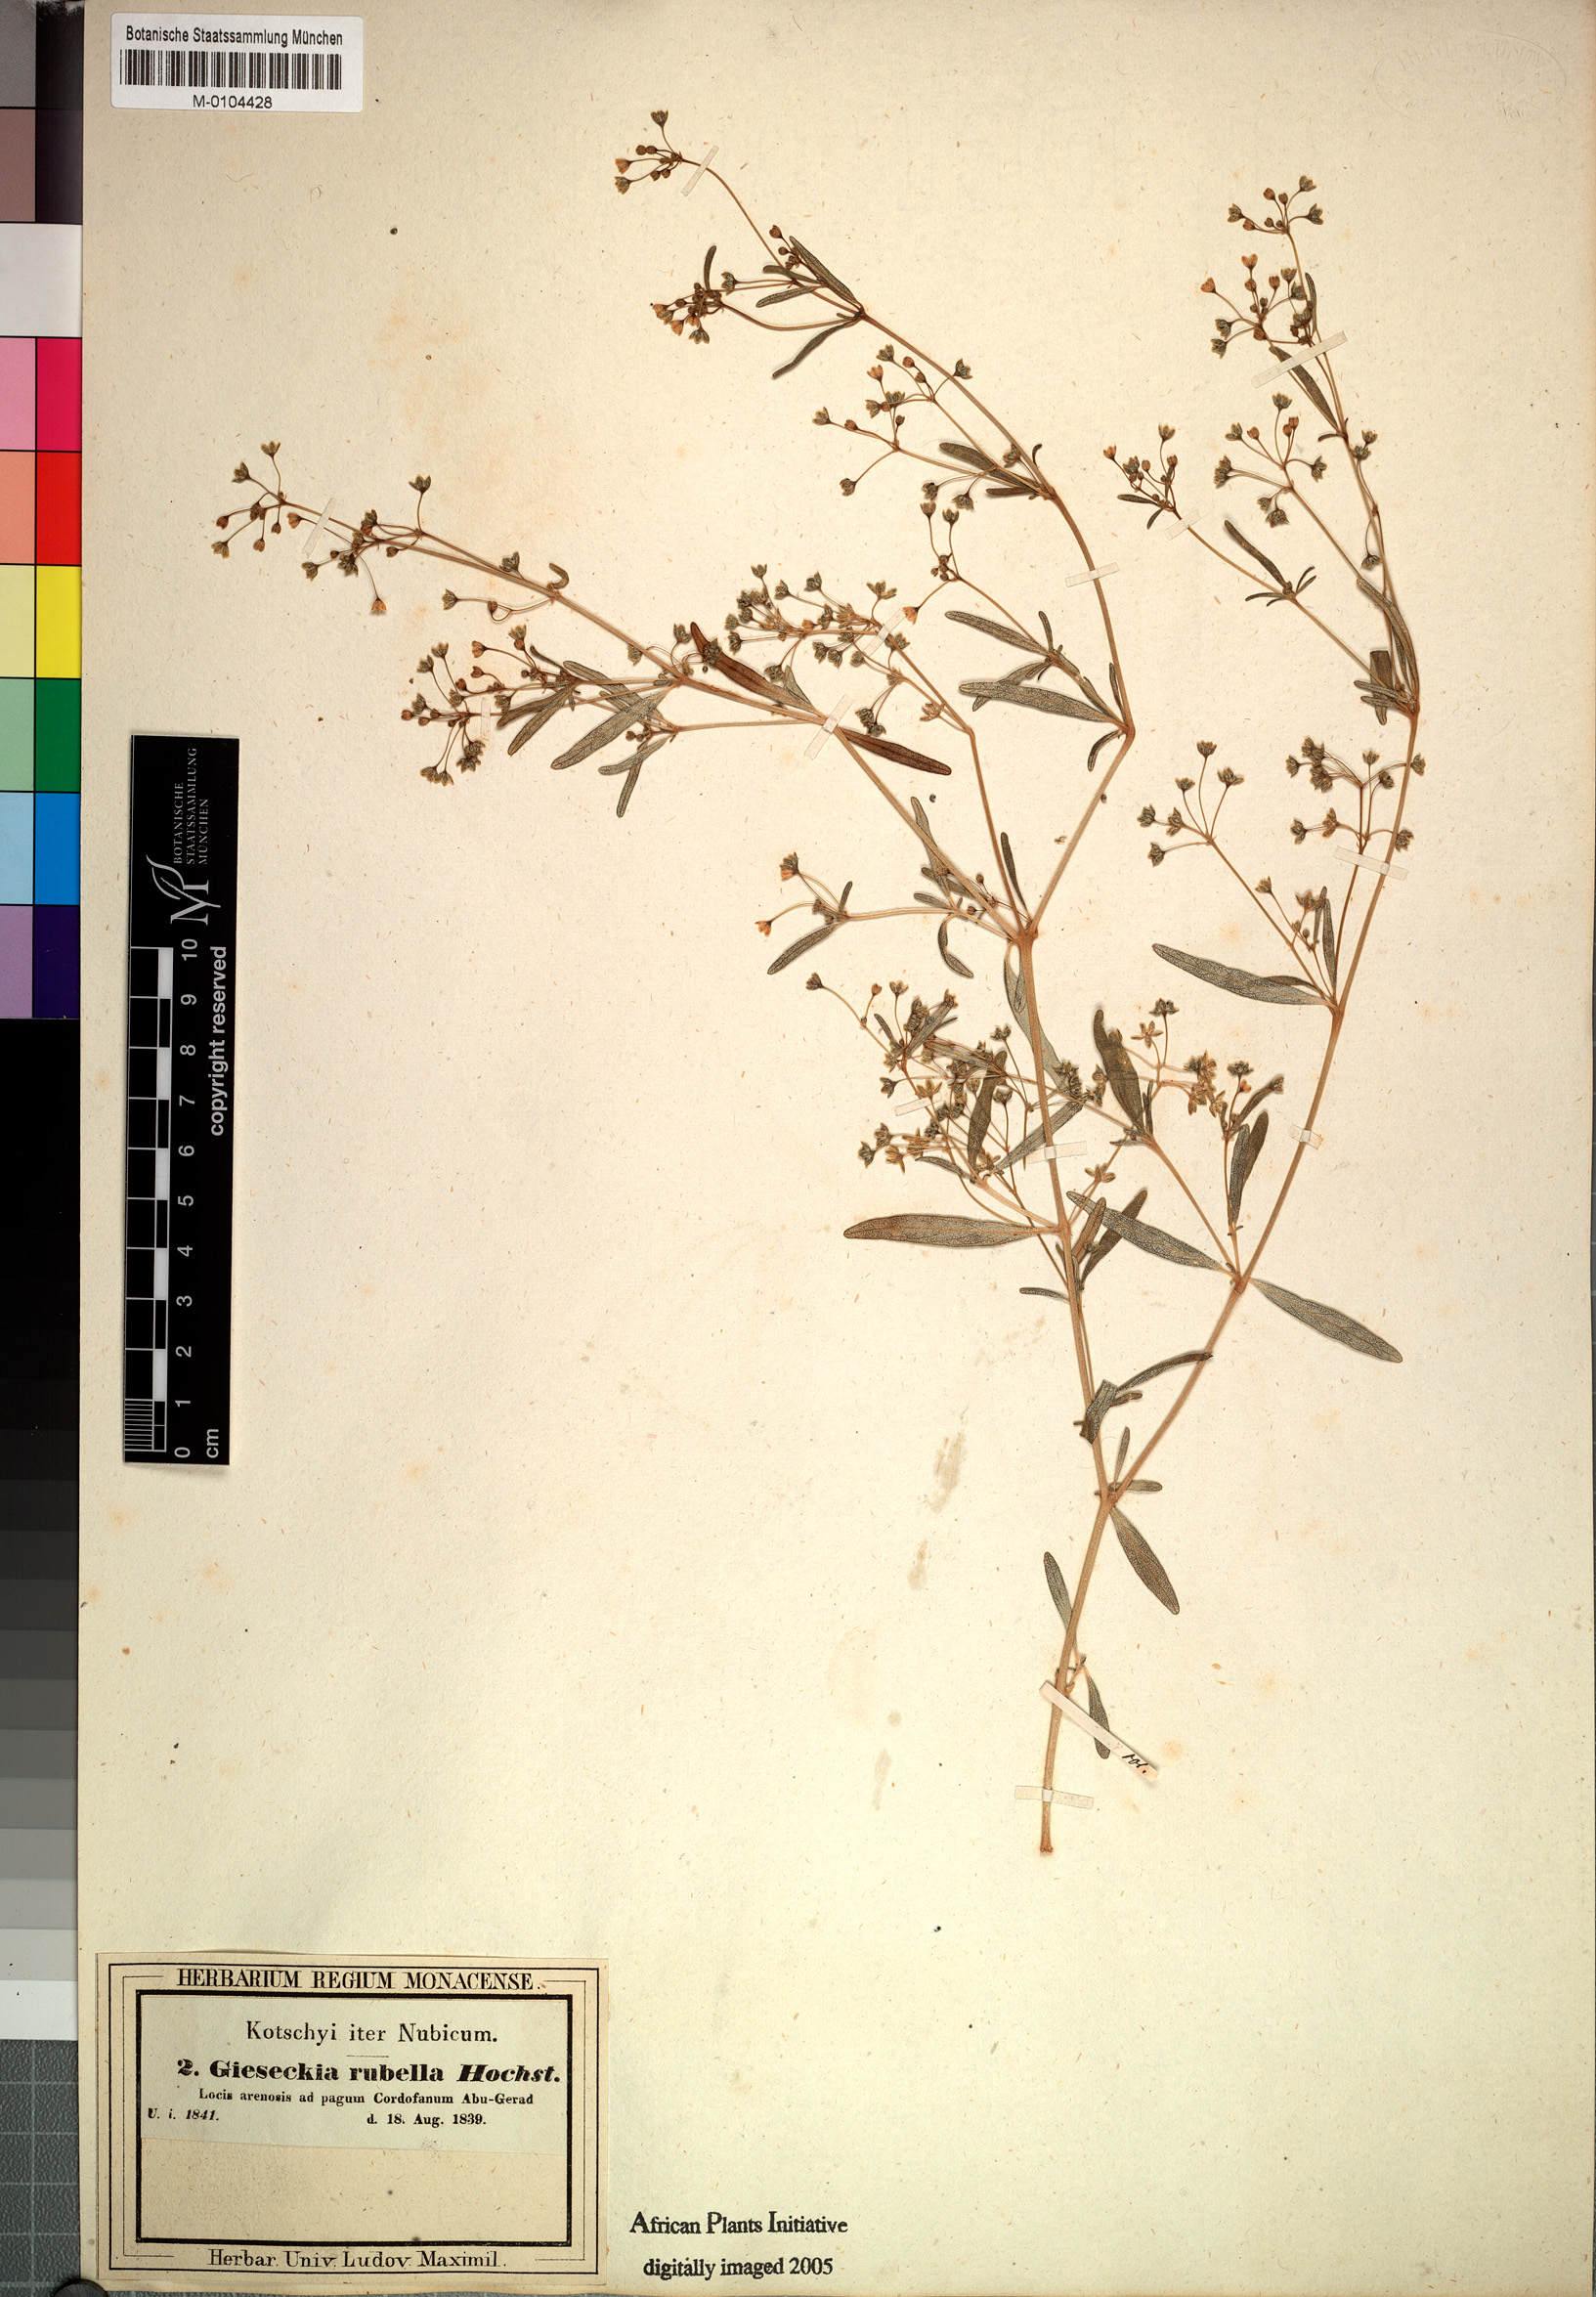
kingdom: Plantae
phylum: Tracheophyta
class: Magnoliopsida
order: Caryophyllales
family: Gisekiaceae
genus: Gisekia
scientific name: Gisekia pharnaceoides
